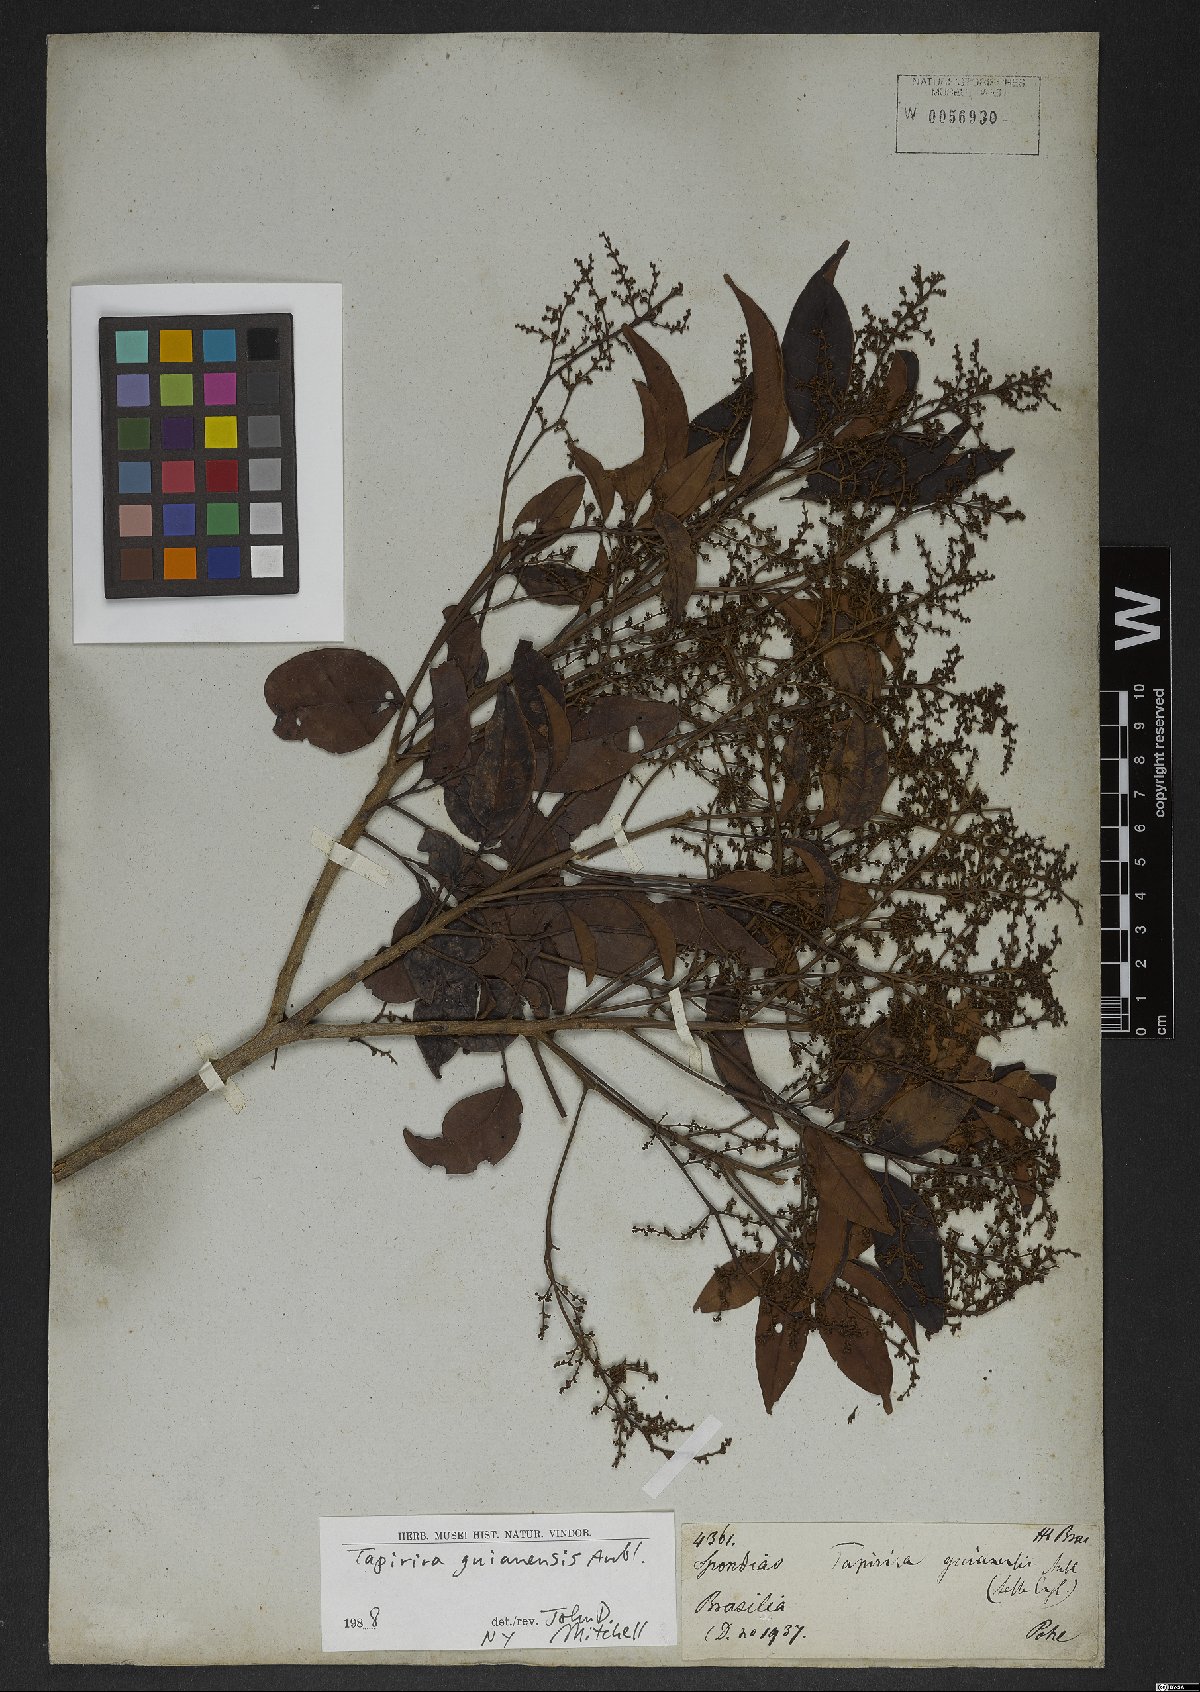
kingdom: Plantae
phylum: Tracheophyta
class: Magnoliopsida
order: Sapindales
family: Anacardiaceae
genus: Tapirira
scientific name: Tapirira guianensis
